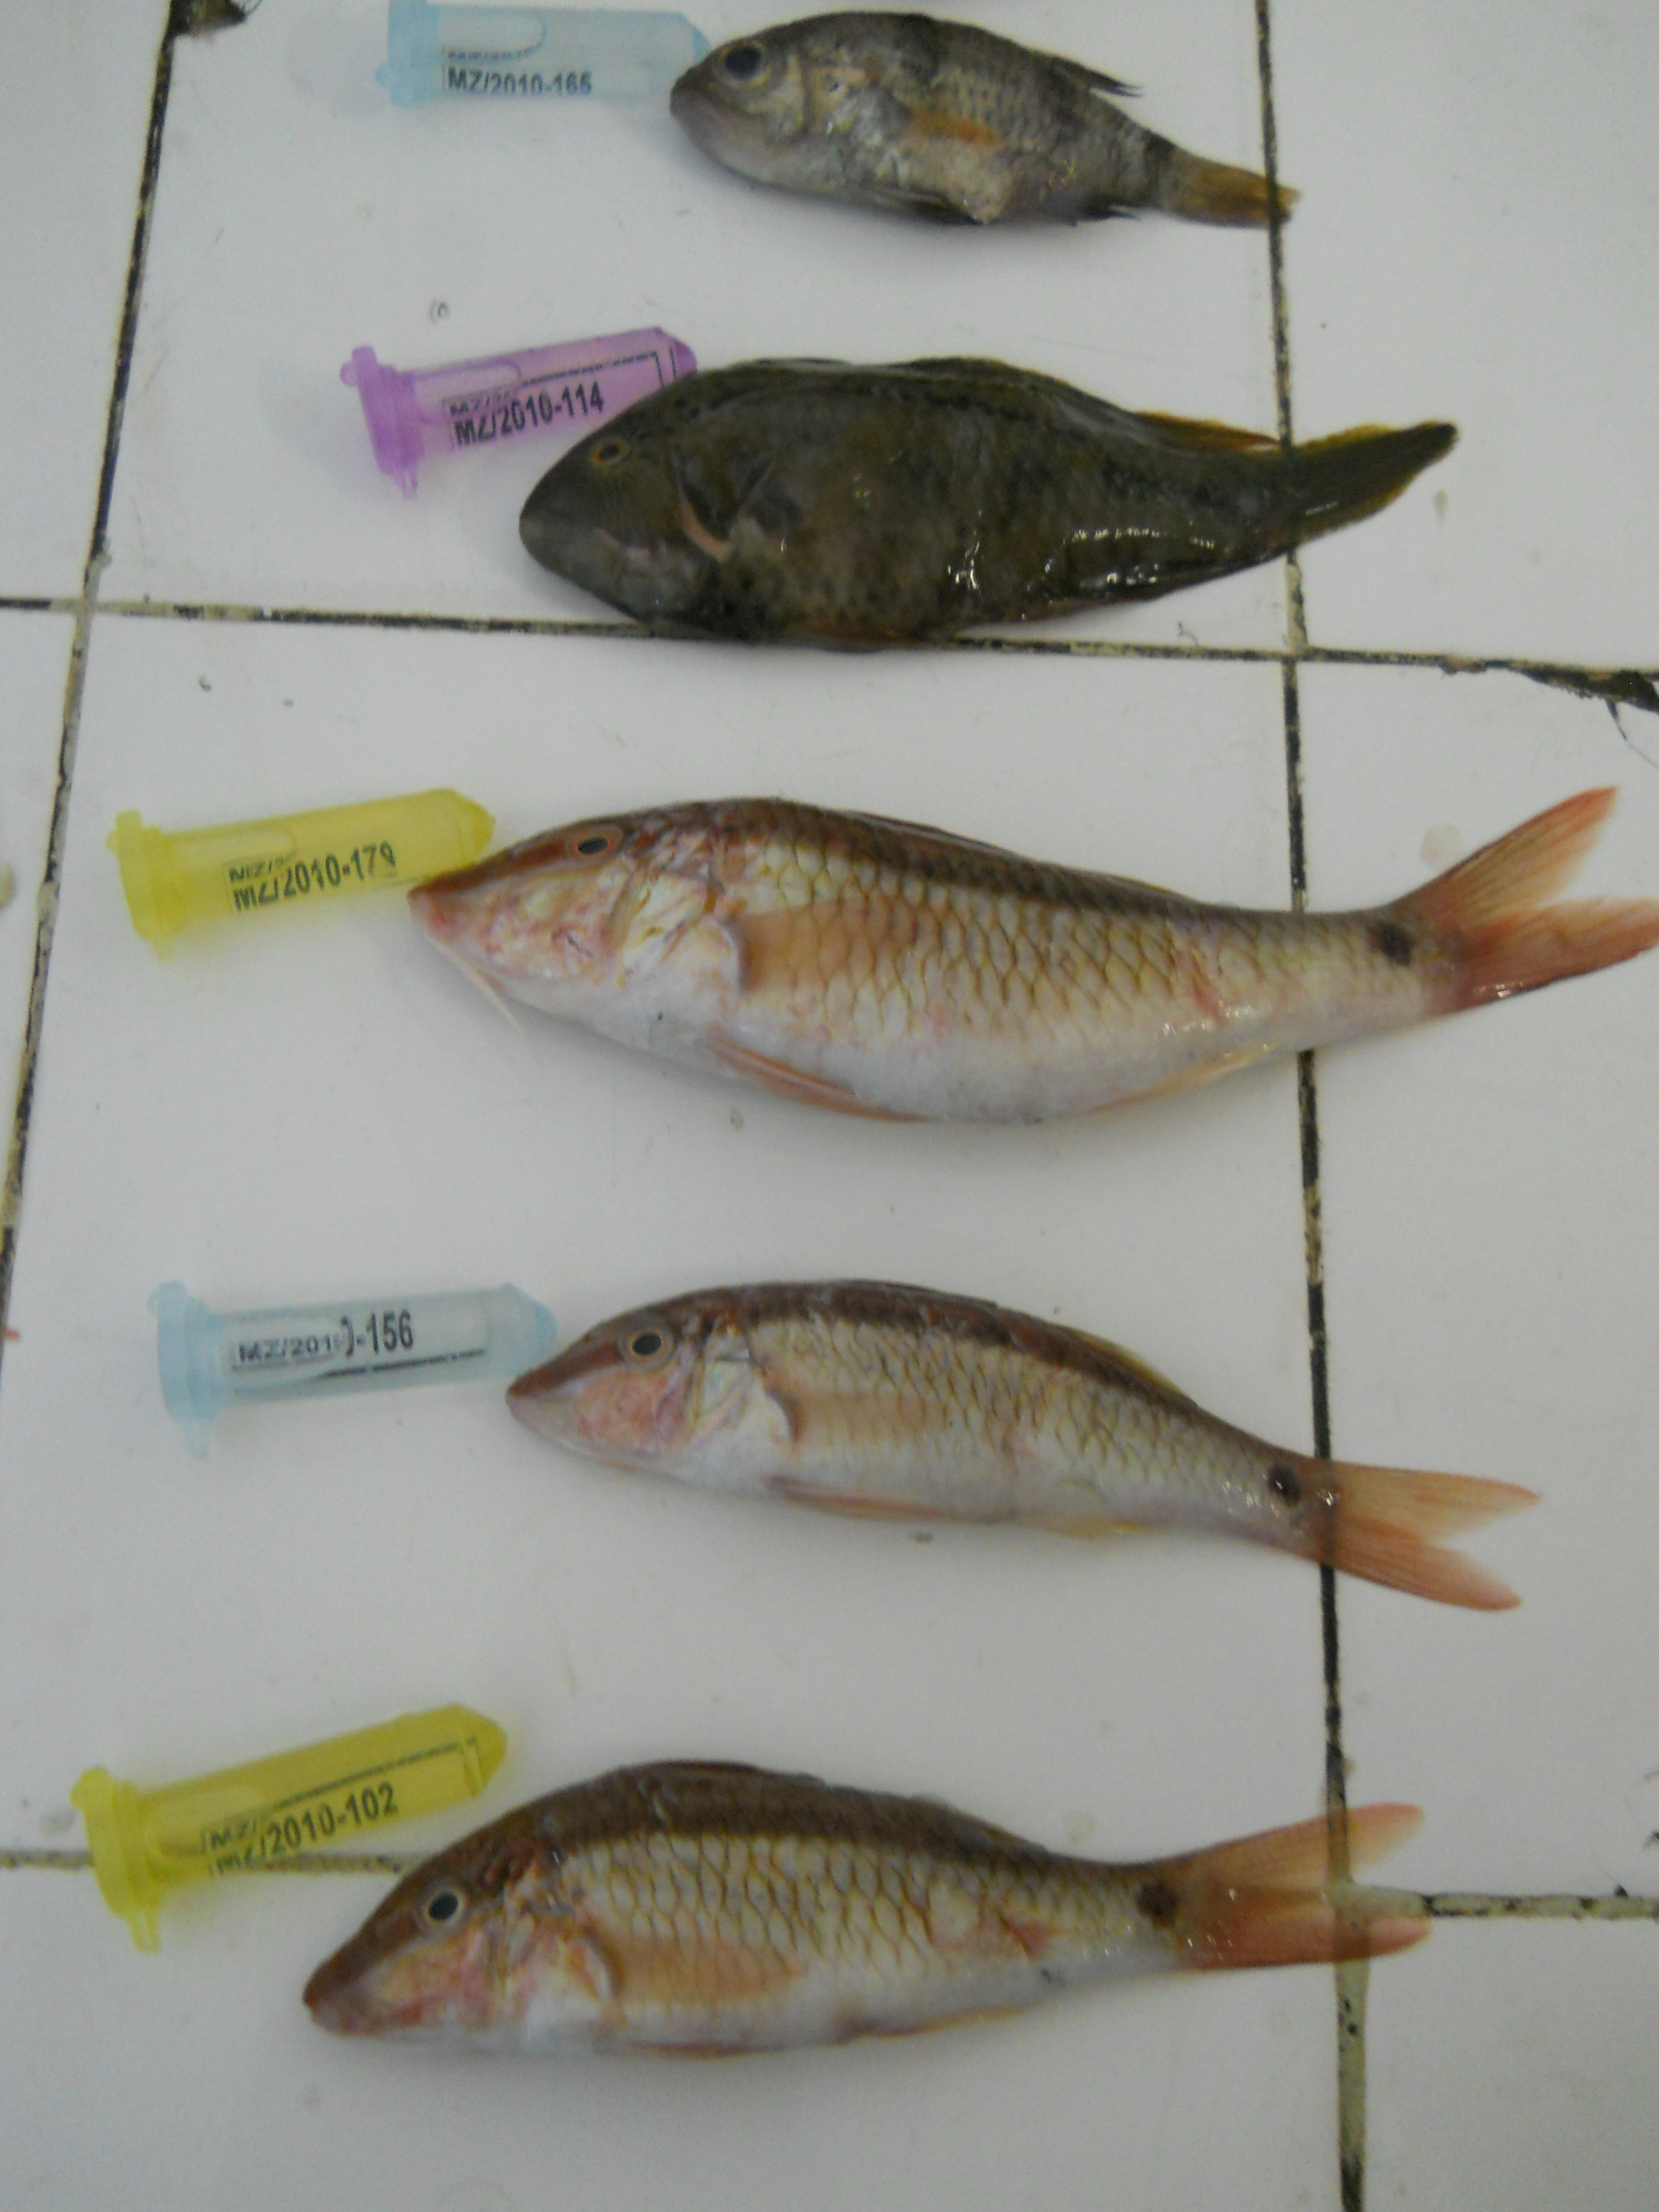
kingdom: Animalia
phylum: Chordata
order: Perciformes
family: Labridae
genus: Cheilinus
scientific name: Cheilinus
